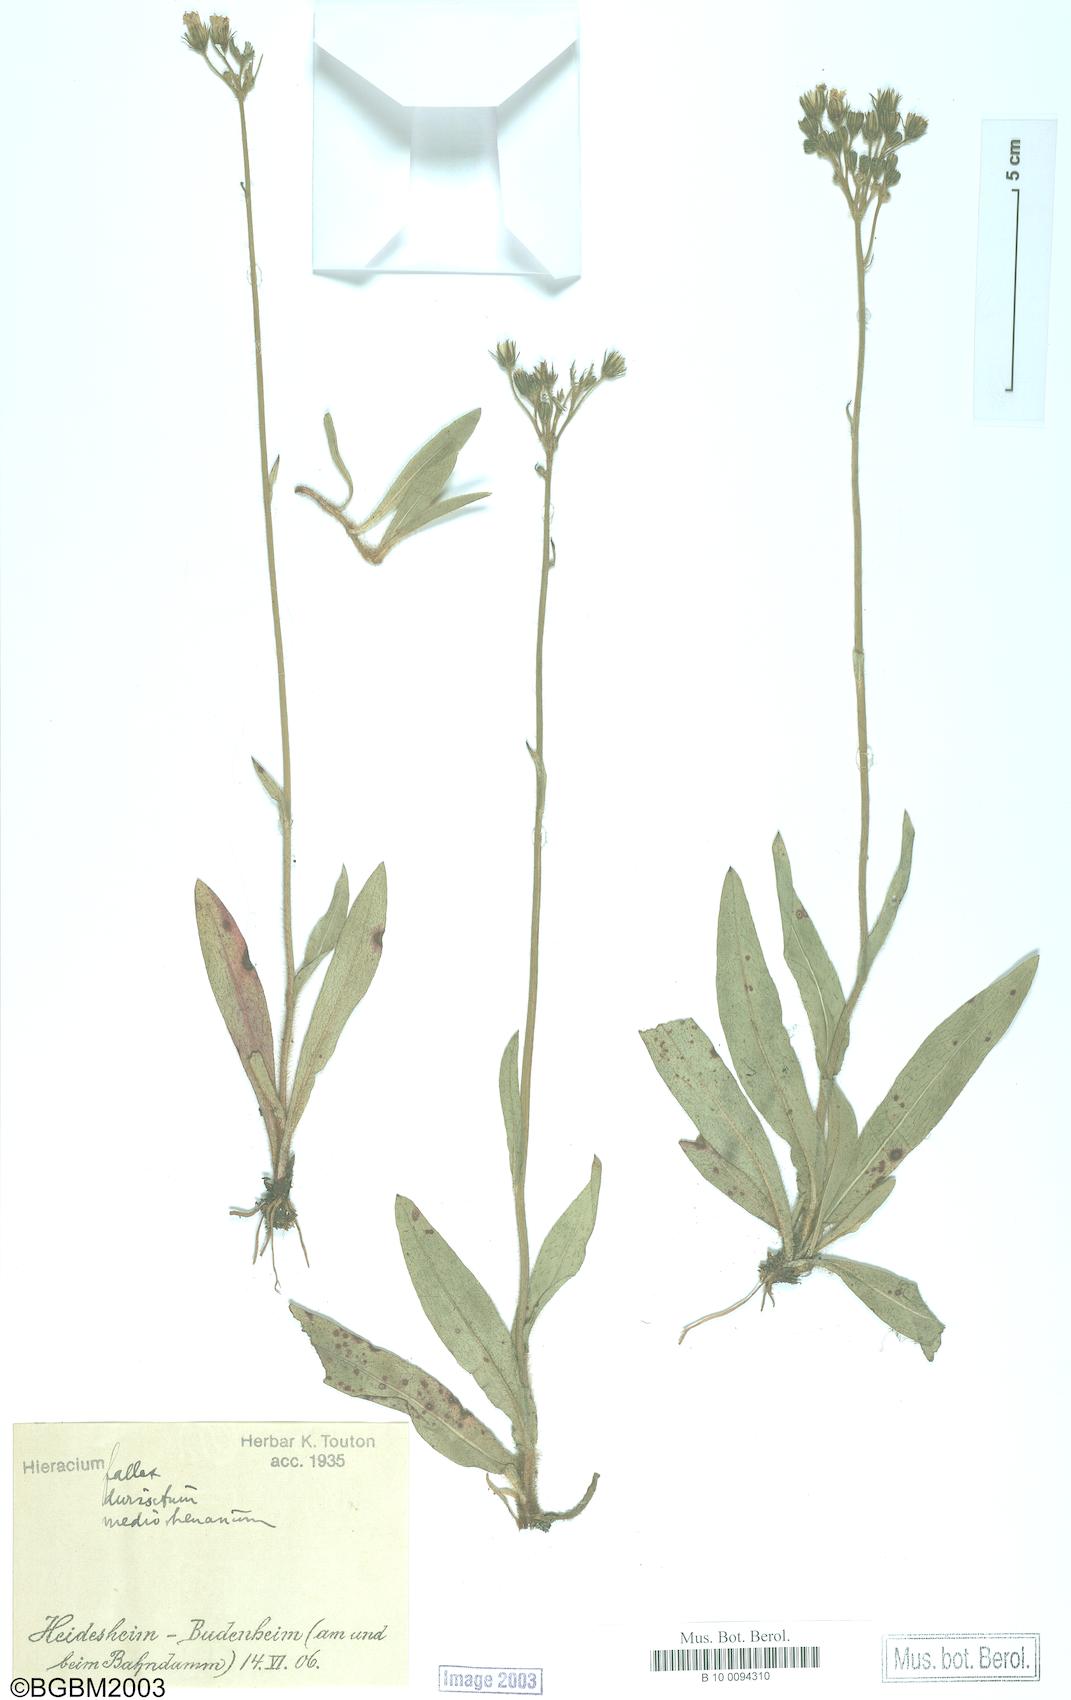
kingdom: Plantae
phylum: Tracheophyta
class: Magnoliopsida
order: Asterales
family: Asteraceae
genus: Hieracium
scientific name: Hieracium fallax
